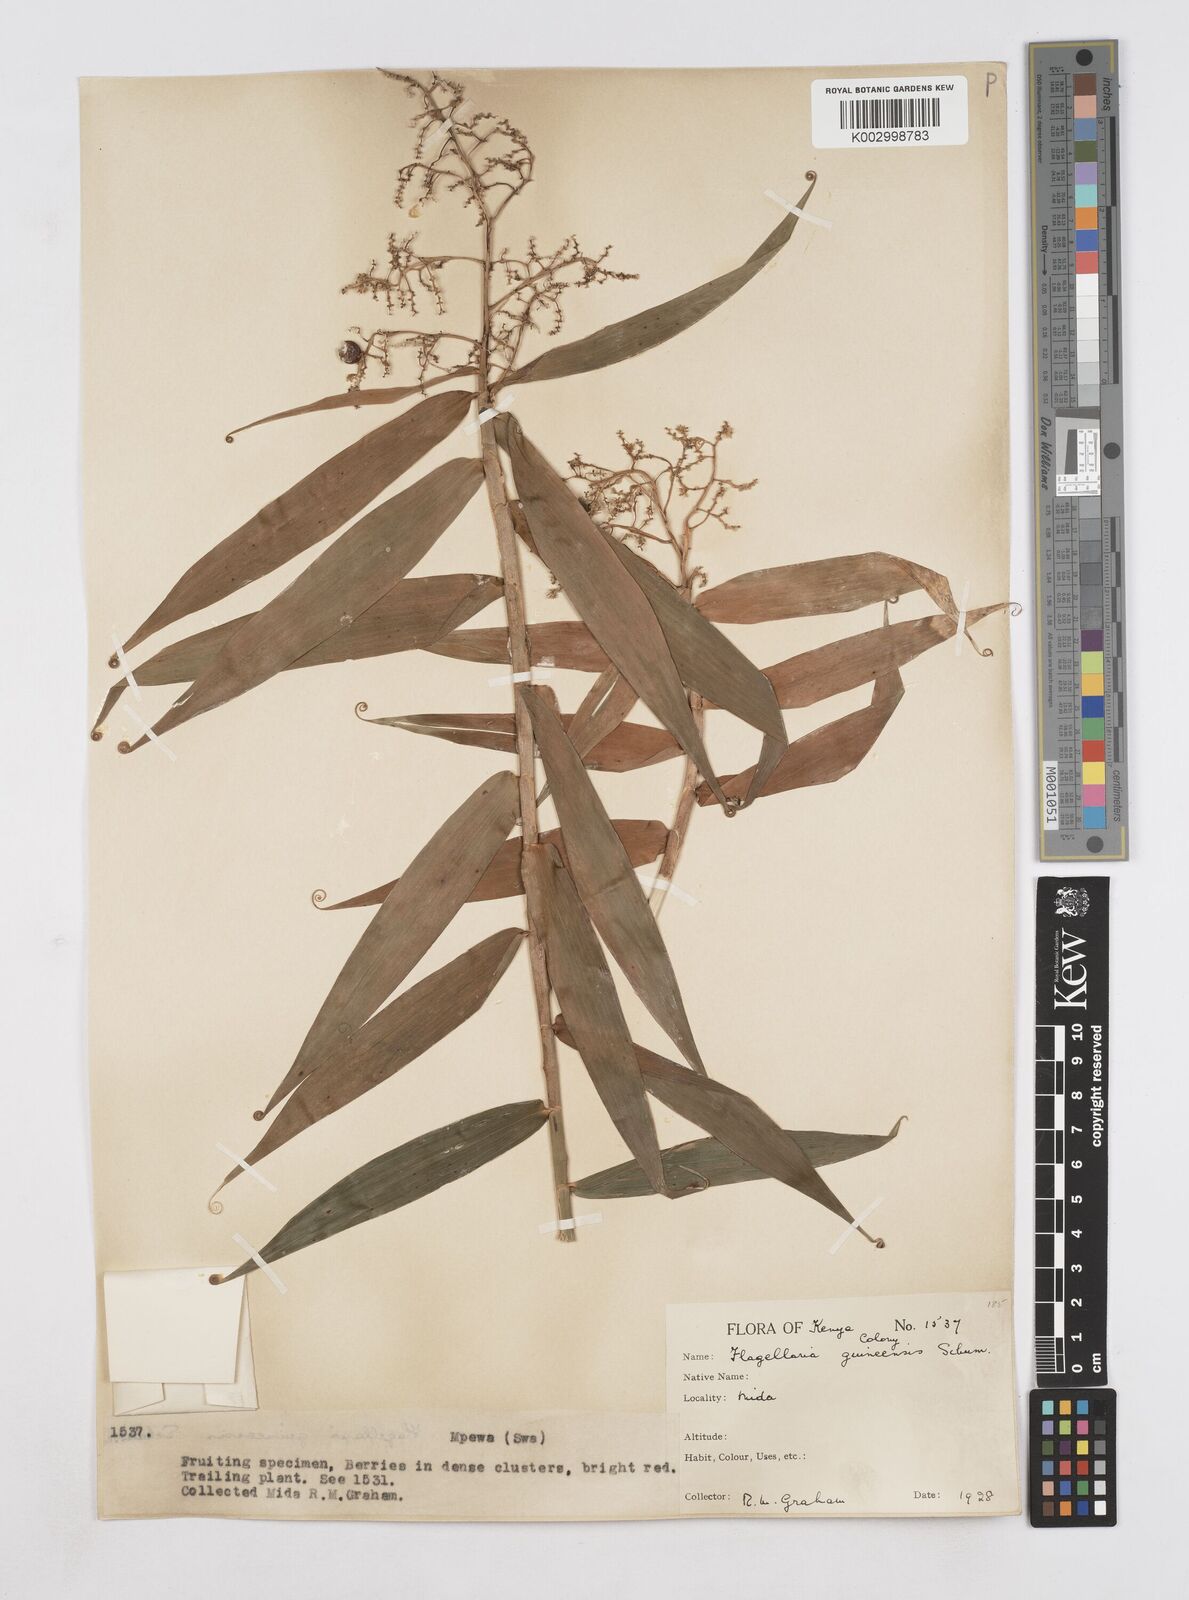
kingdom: Plantae
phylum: Tracheophyta
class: Liliopsida
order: Poales
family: Flagellariaceae
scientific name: Flagellariaceae
